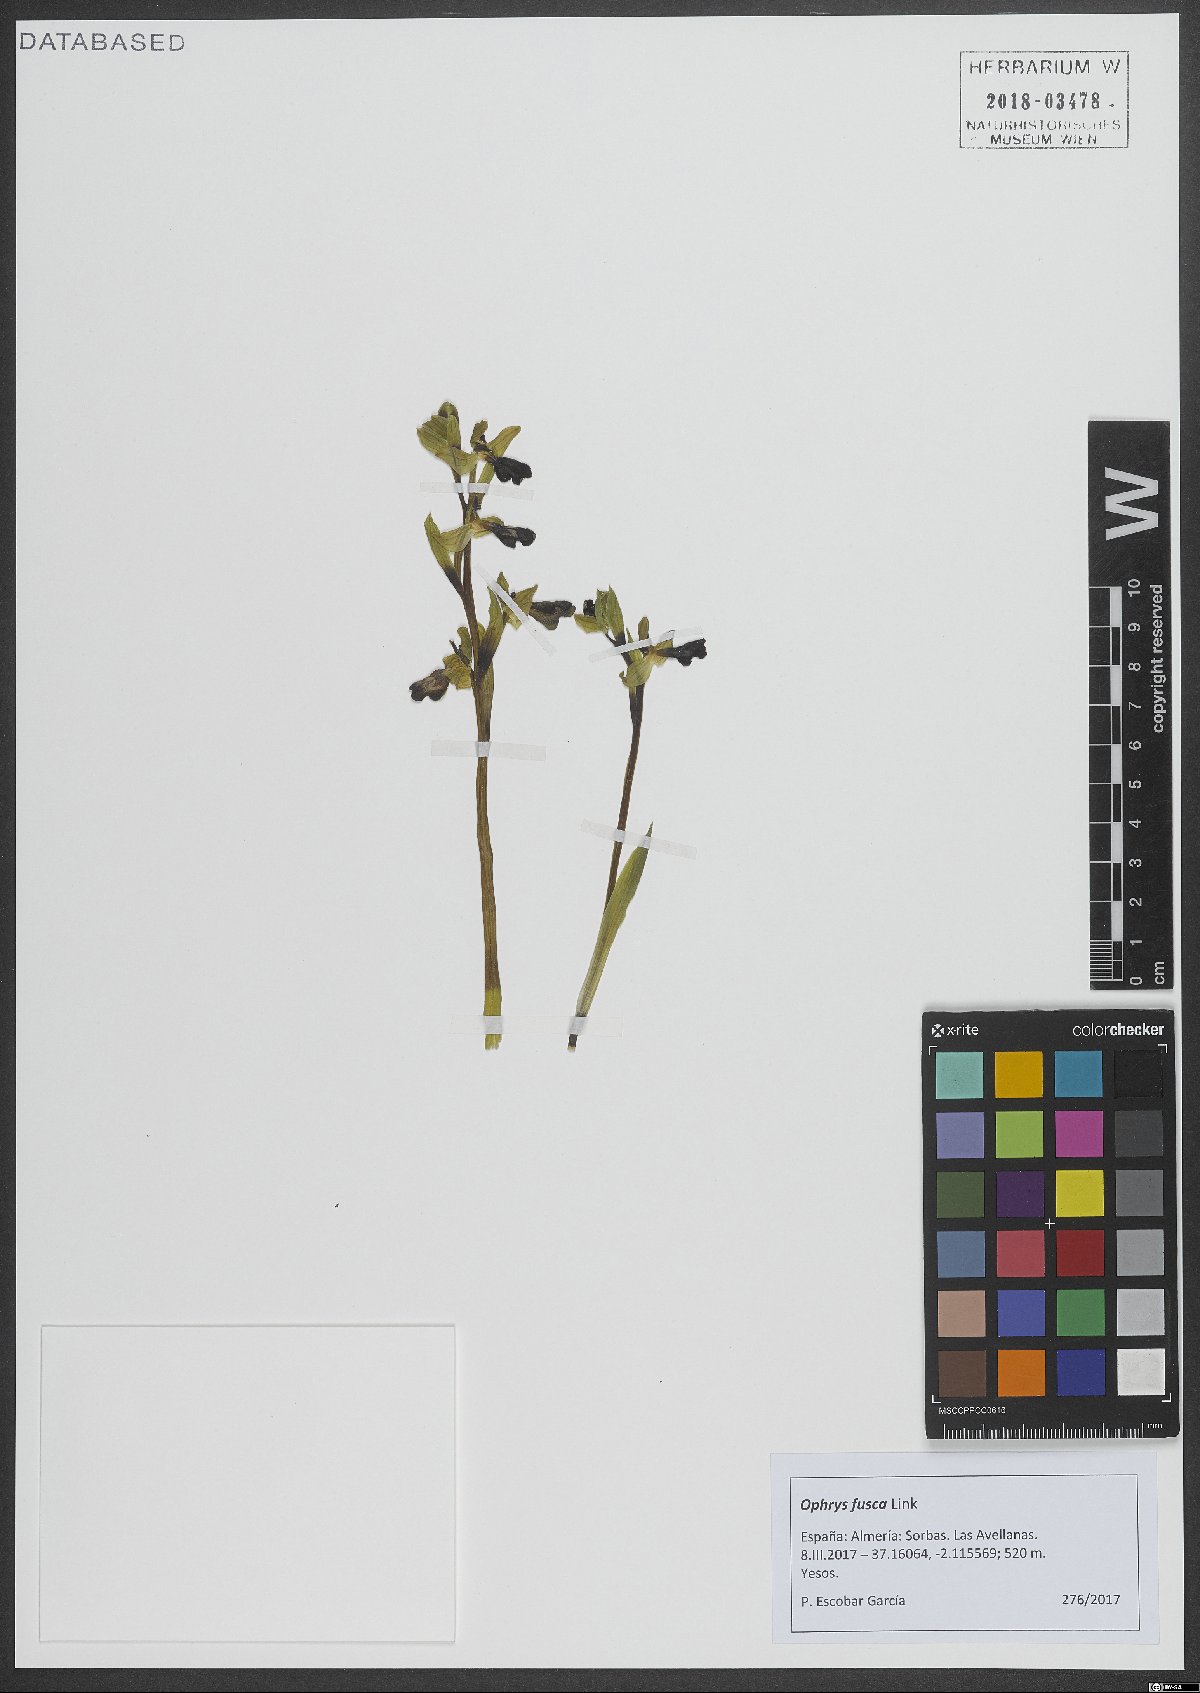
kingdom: Plantae
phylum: Tracheophyta
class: Liliopsida
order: Asparagales
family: Orchidaceae
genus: Ophrys
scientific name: Ophrys fusca
